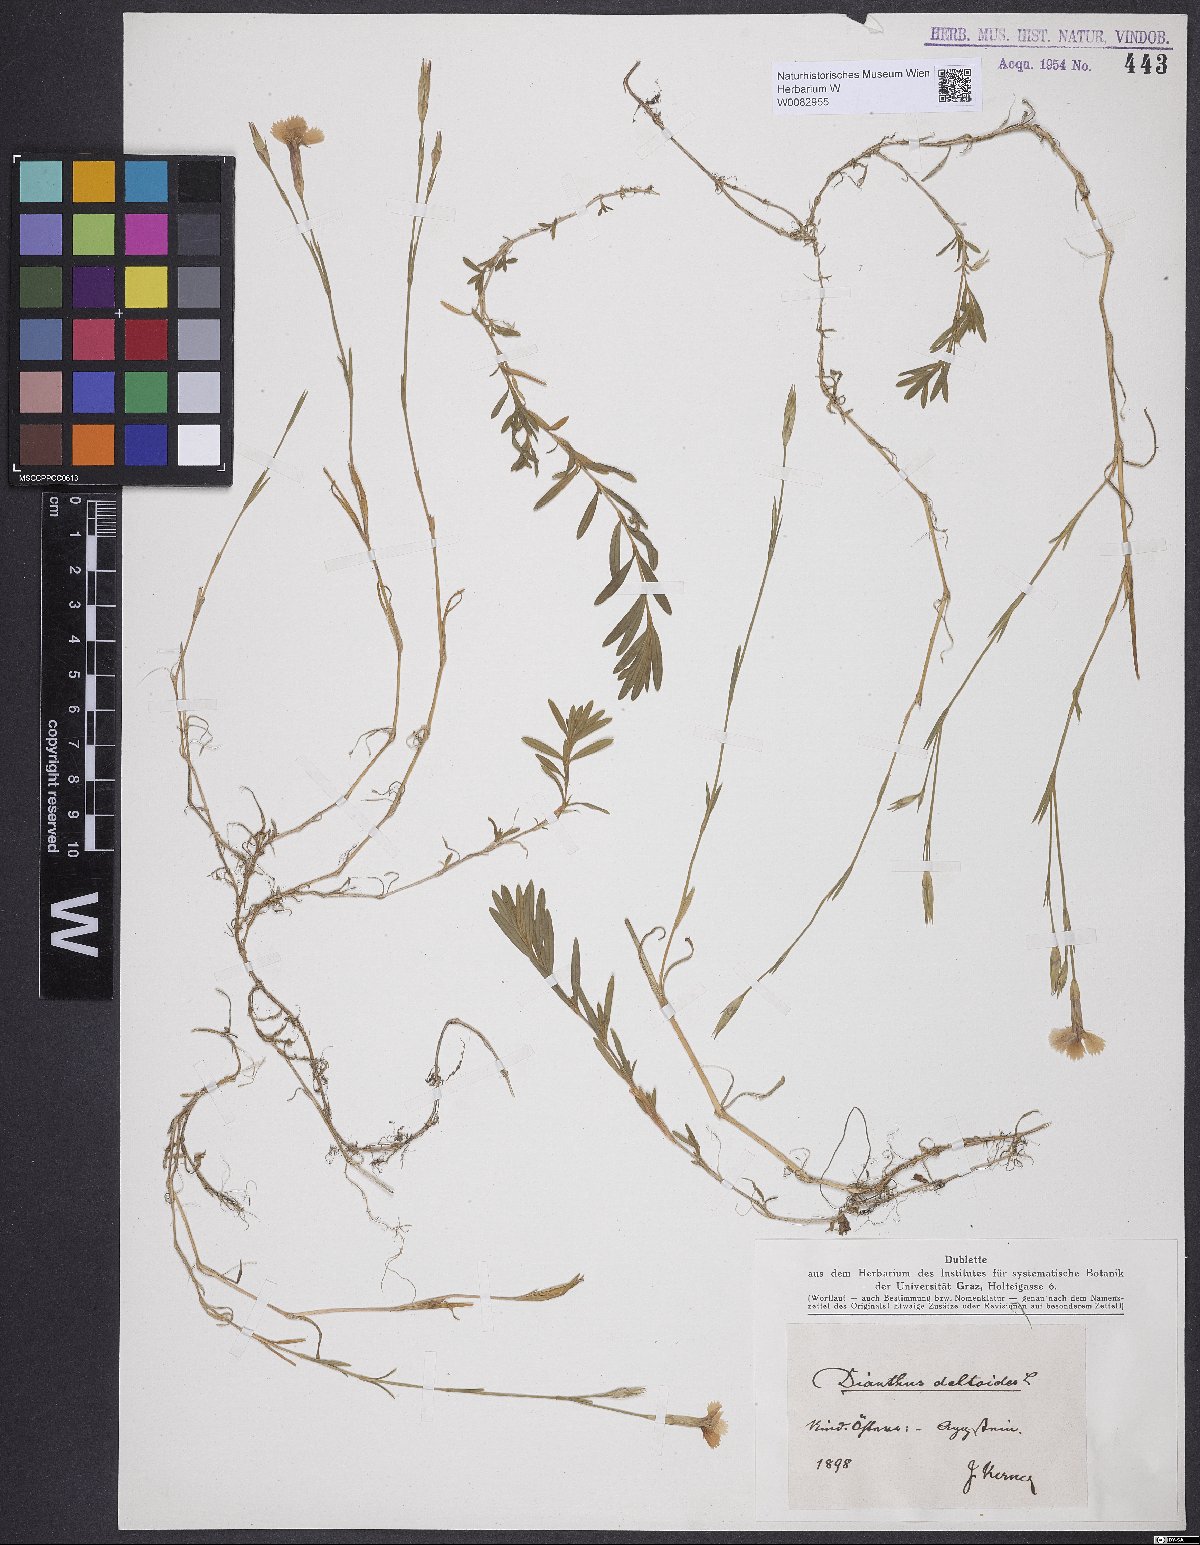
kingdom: Plantae
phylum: Tracheophyta
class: Magnoliopsida
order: Caryophyllales
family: Caryophyllaceae
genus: Dianthus
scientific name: Dianthus deltoides
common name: Maiden pink
